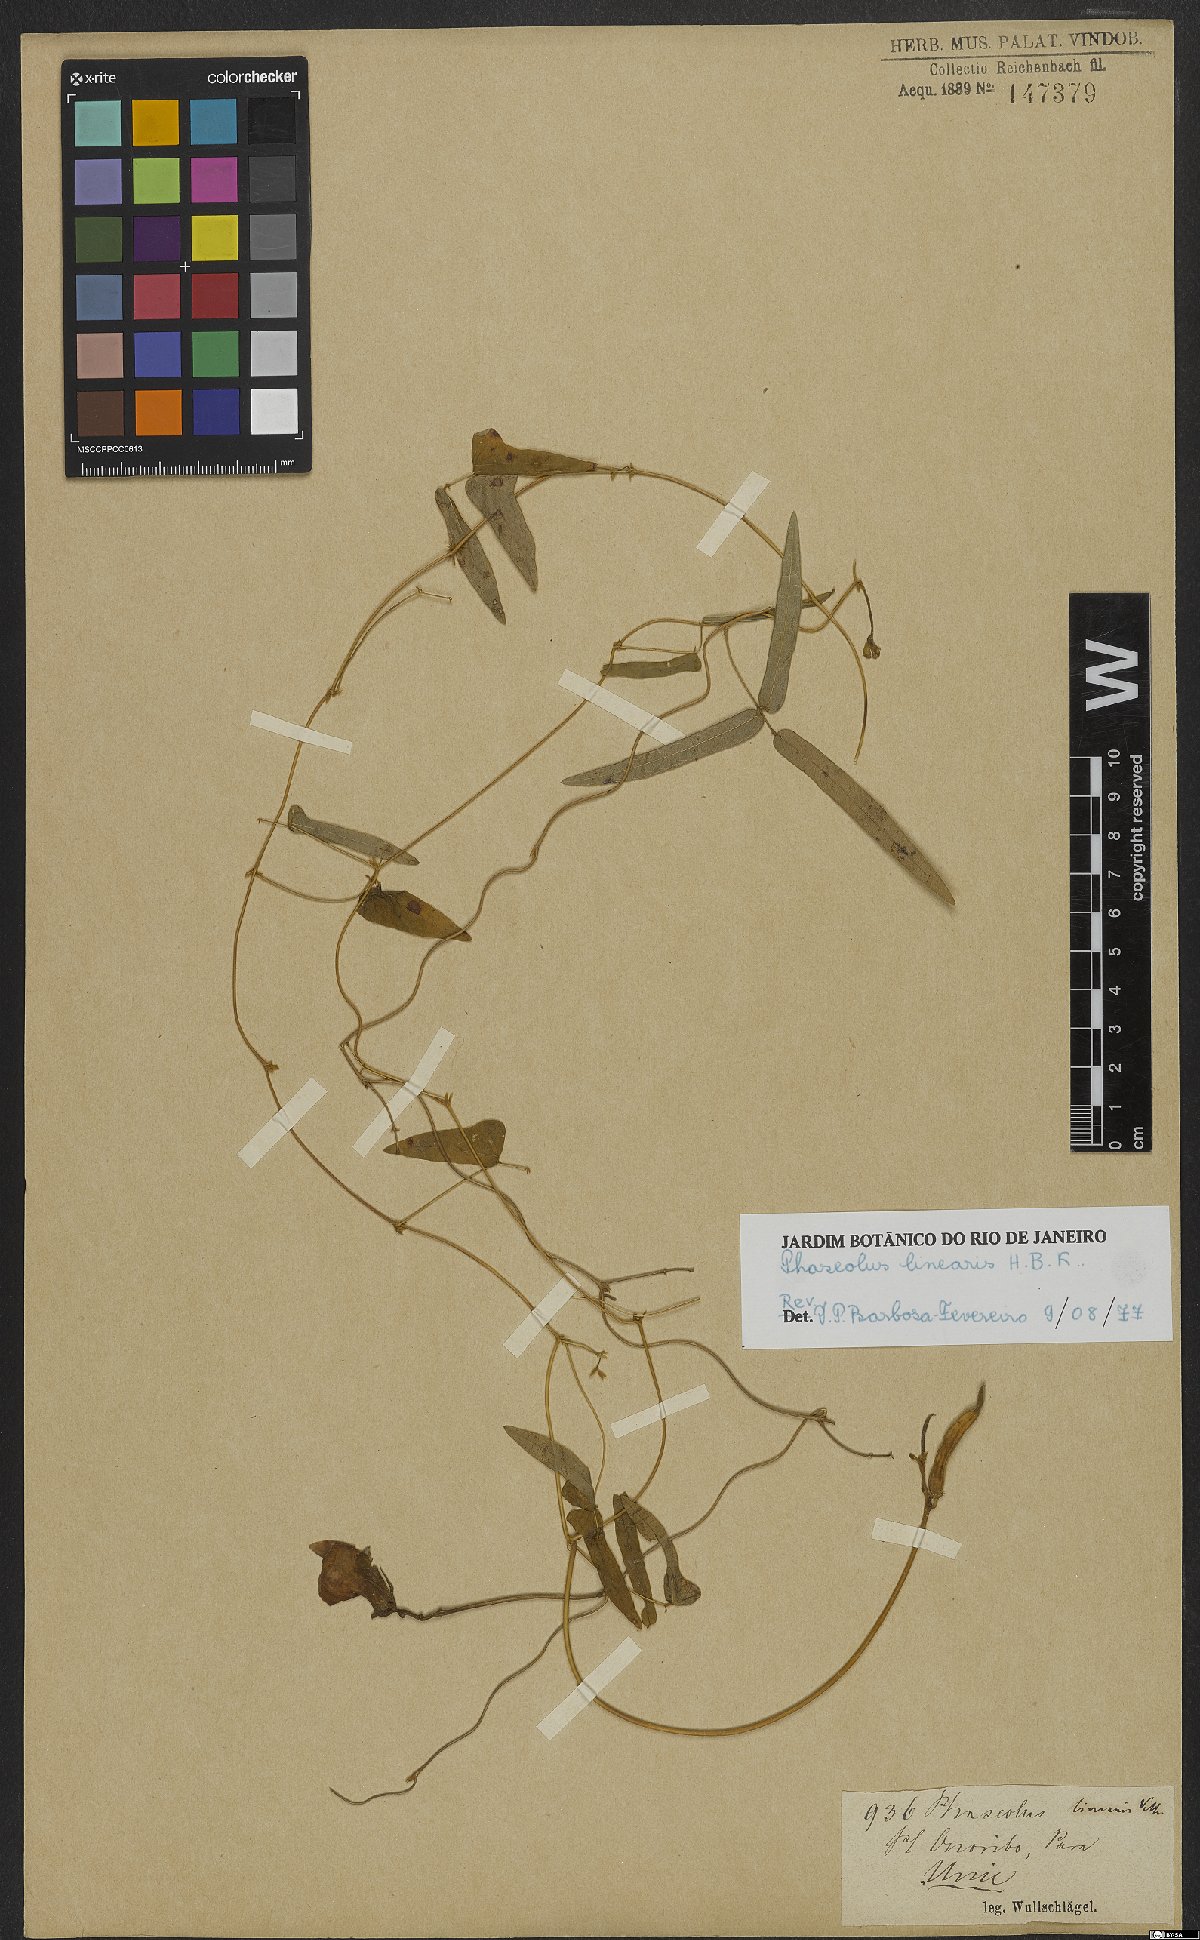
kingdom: Plantae
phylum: Tracheophyta
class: Magnoliopsida
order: Fabales
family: Fabaceae
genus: Helicotropis
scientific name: Helicotropis linearis
